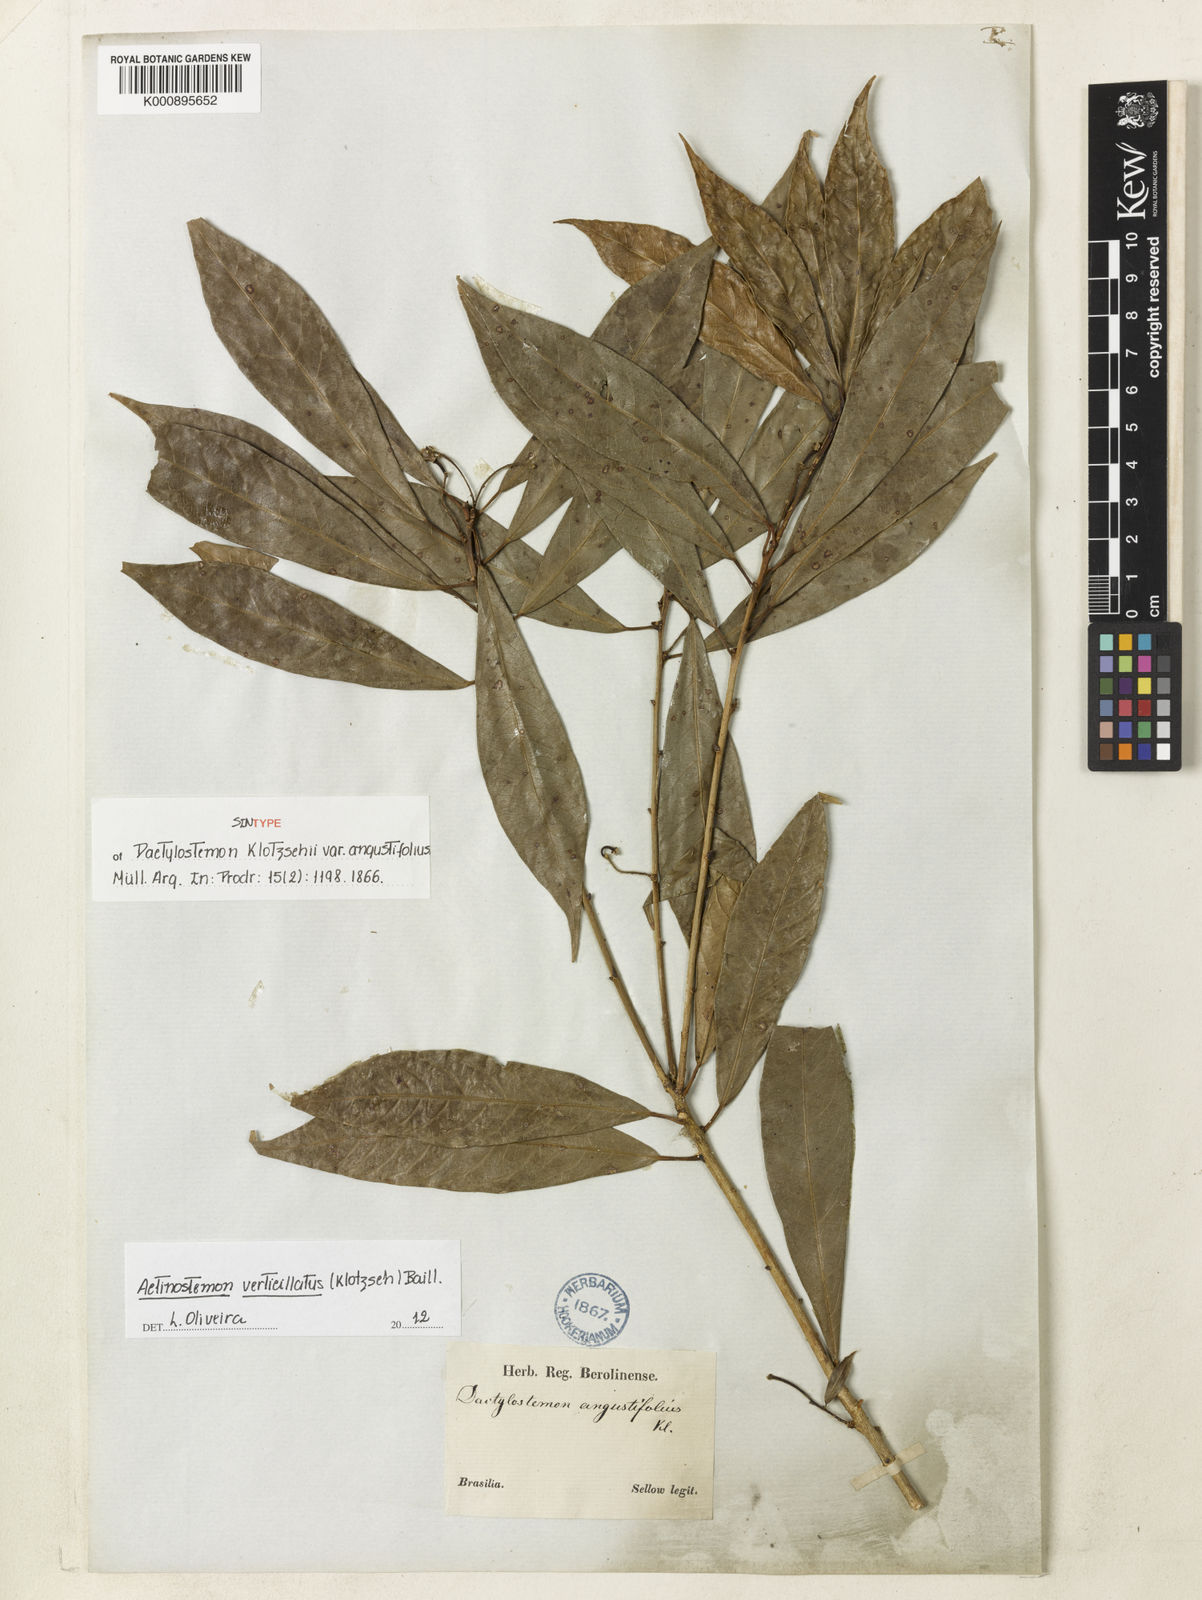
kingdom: Plantae
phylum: Tracheophyta
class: Magnoliopsida
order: Malpighiales
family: Euphorbiaceae
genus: Actinostemon
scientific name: Actinostemon verticillatus
